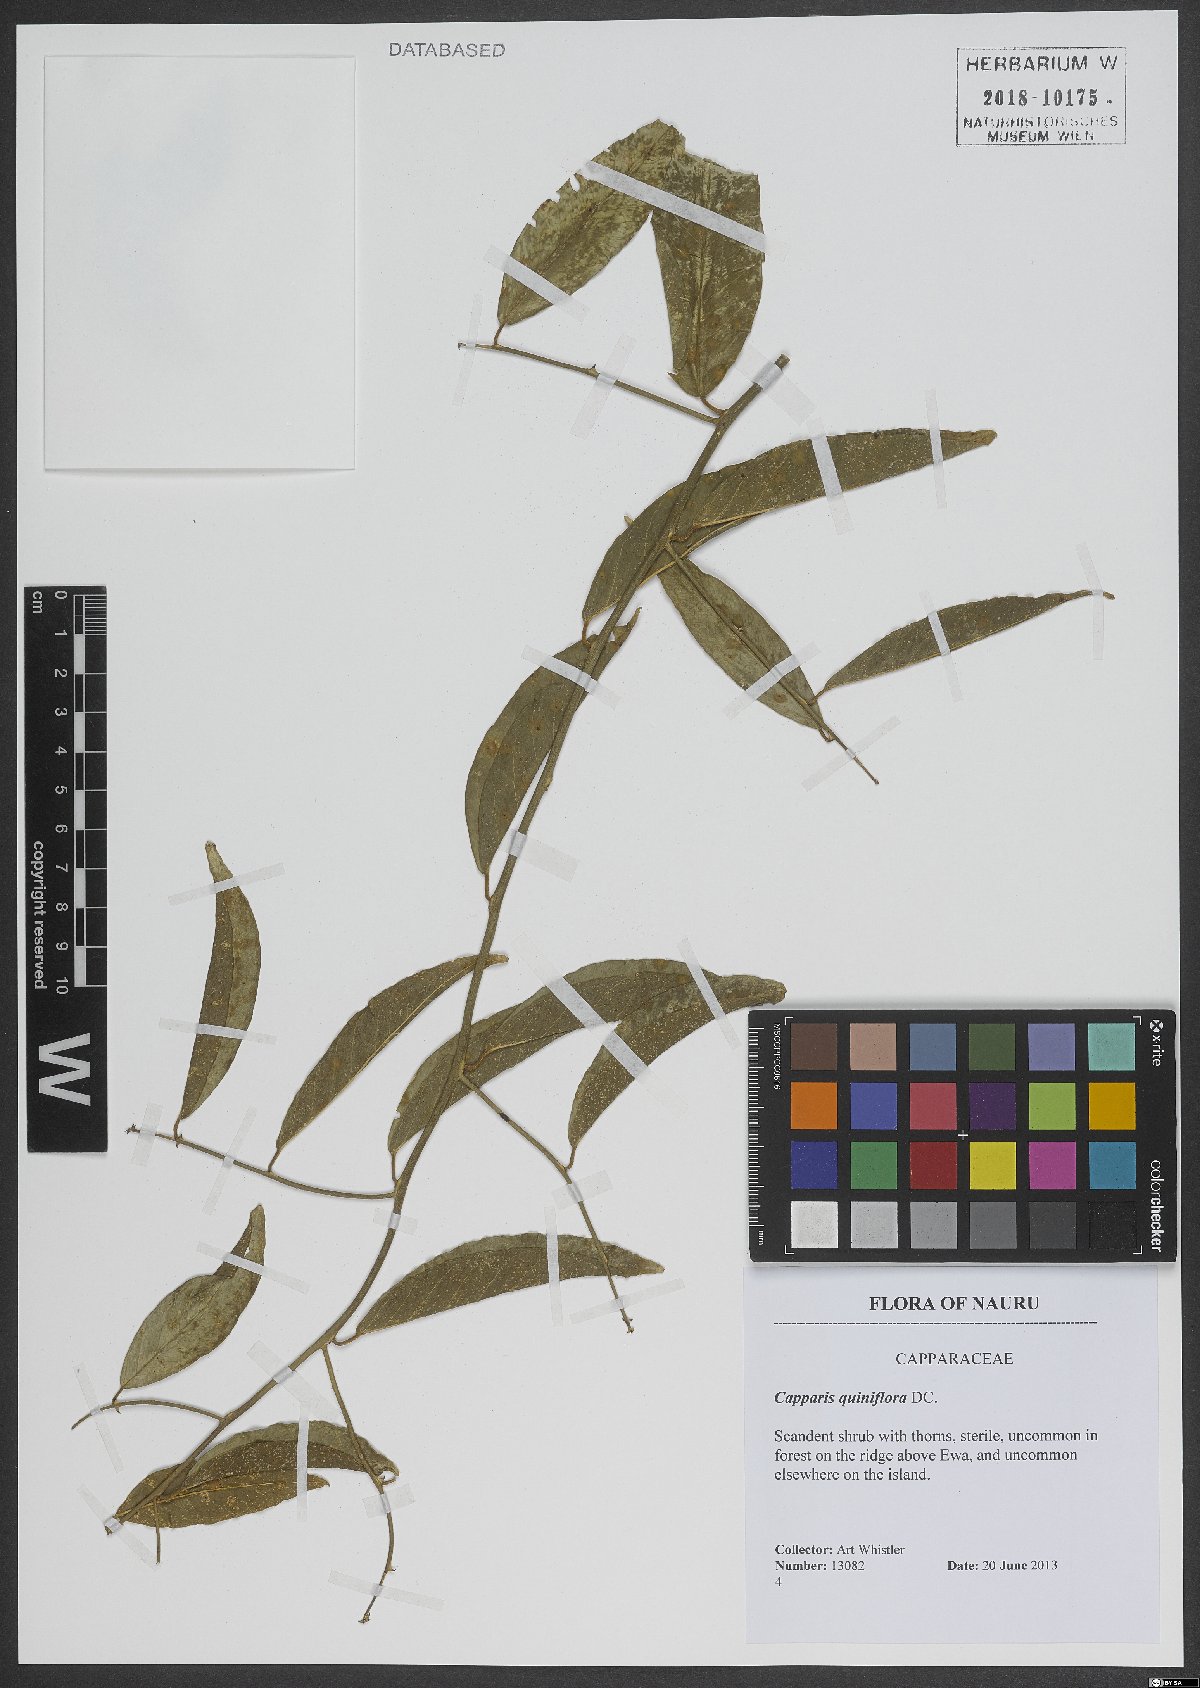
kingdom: Plantae
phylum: Tracheophyta
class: Magnoliopsida
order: Brassicales
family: Capparaceae
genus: Capparis
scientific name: Capparis quiniflora
